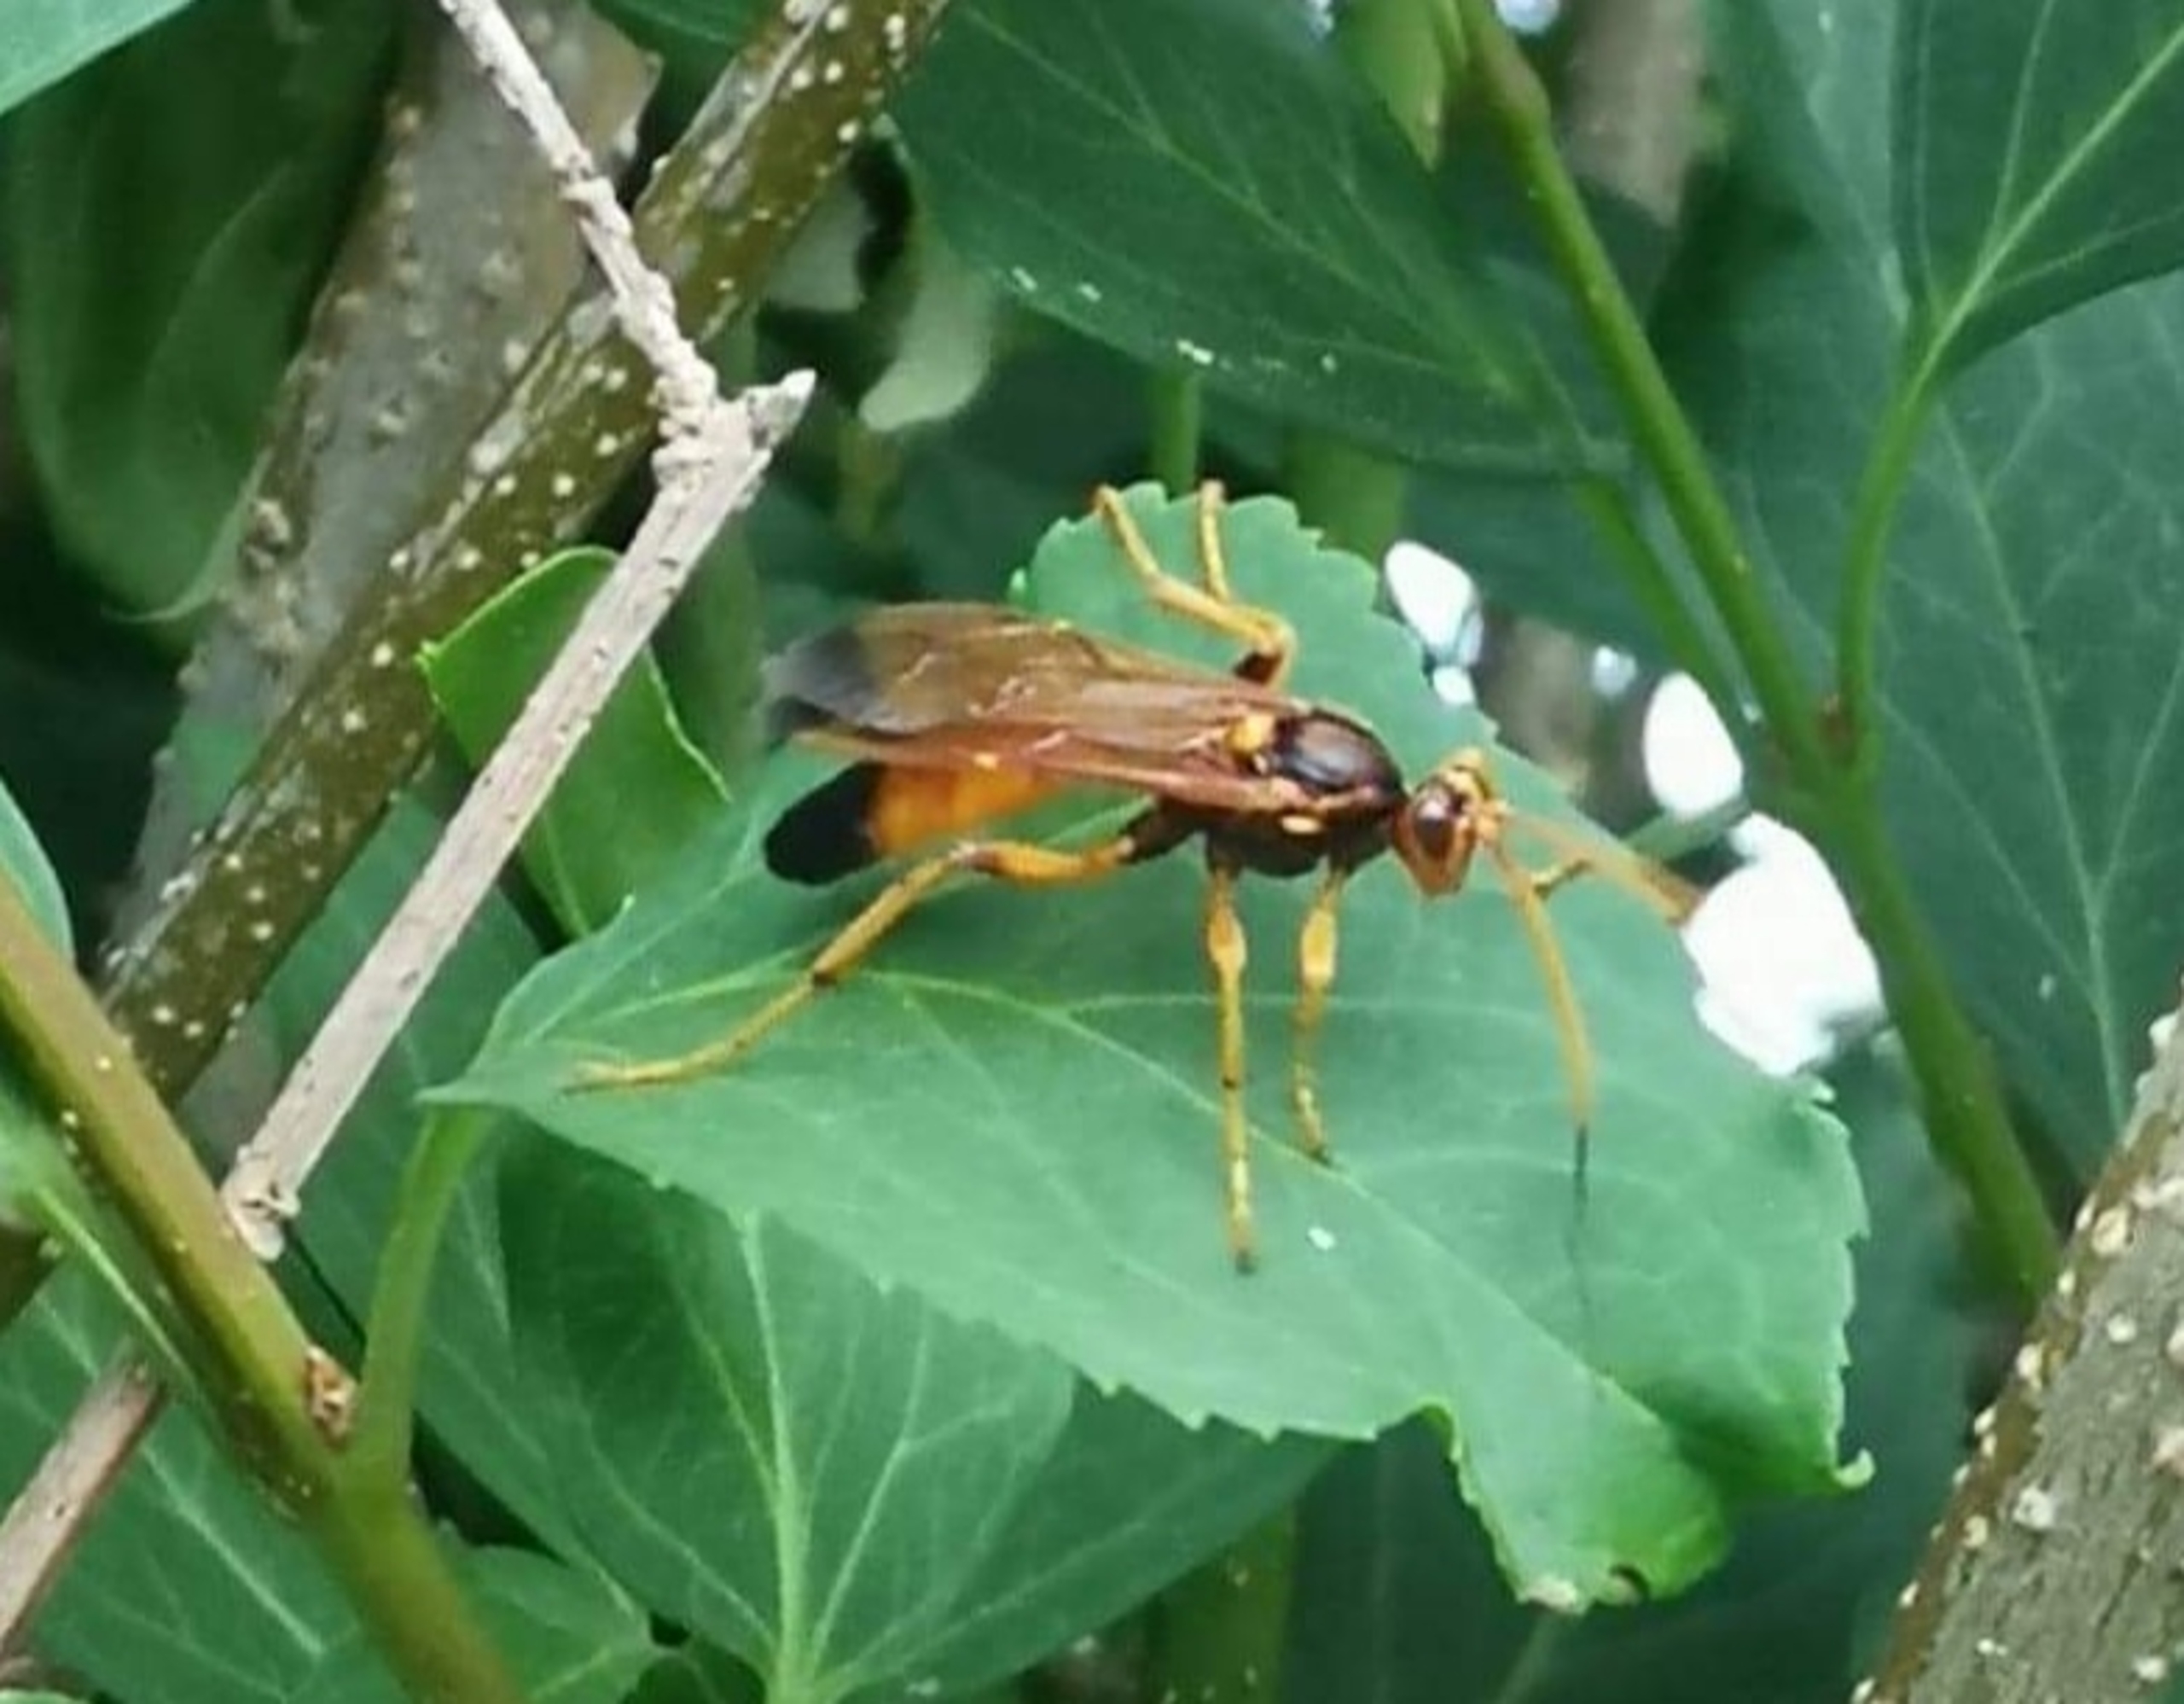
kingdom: Animalia
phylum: Arthropoda
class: Insecta
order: Hymenoptera
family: Ichneumonidae
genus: Callajoppa
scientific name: Callajoppa exaltatoria
